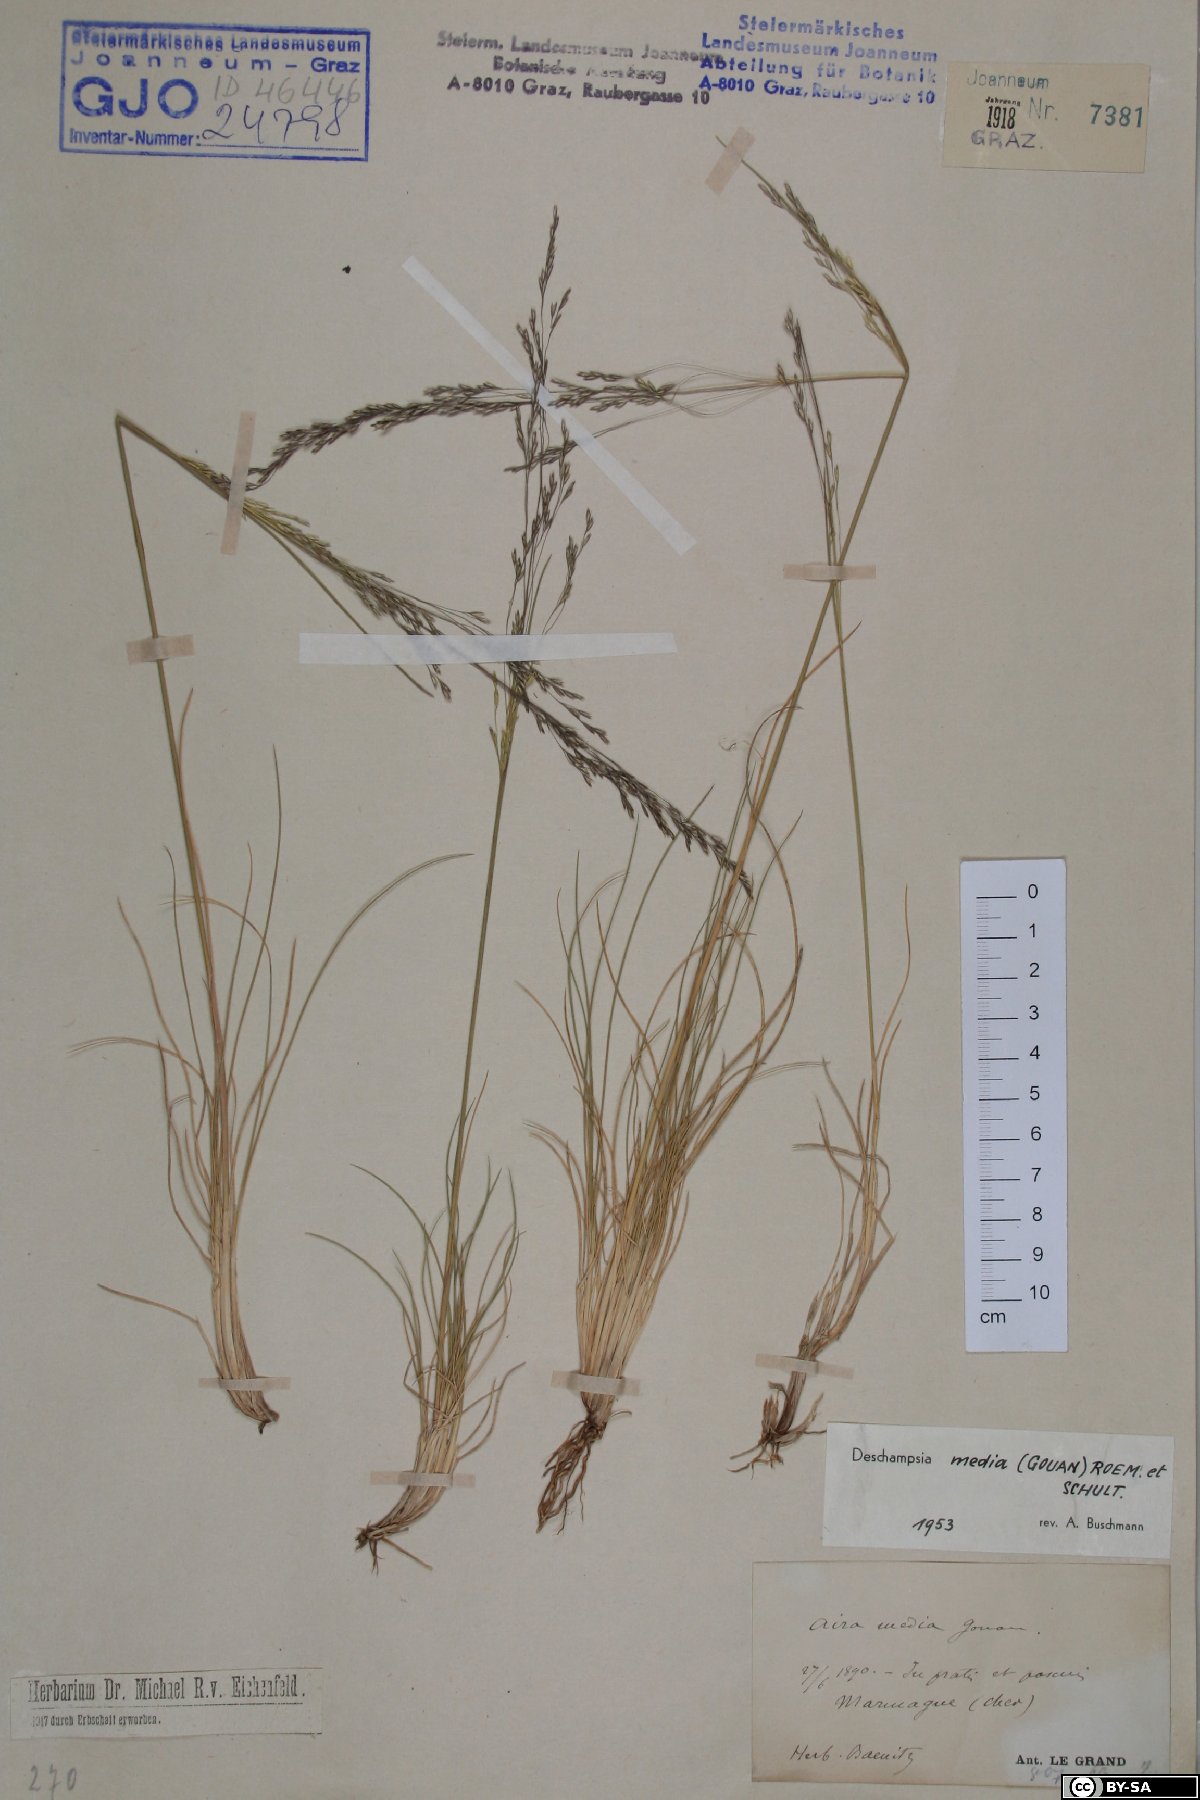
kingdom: Plantae
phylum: Tracheophyta
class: Liliopsida
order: Poales
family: Poaceae
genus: Deschampsia
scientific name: Deschampsia media
